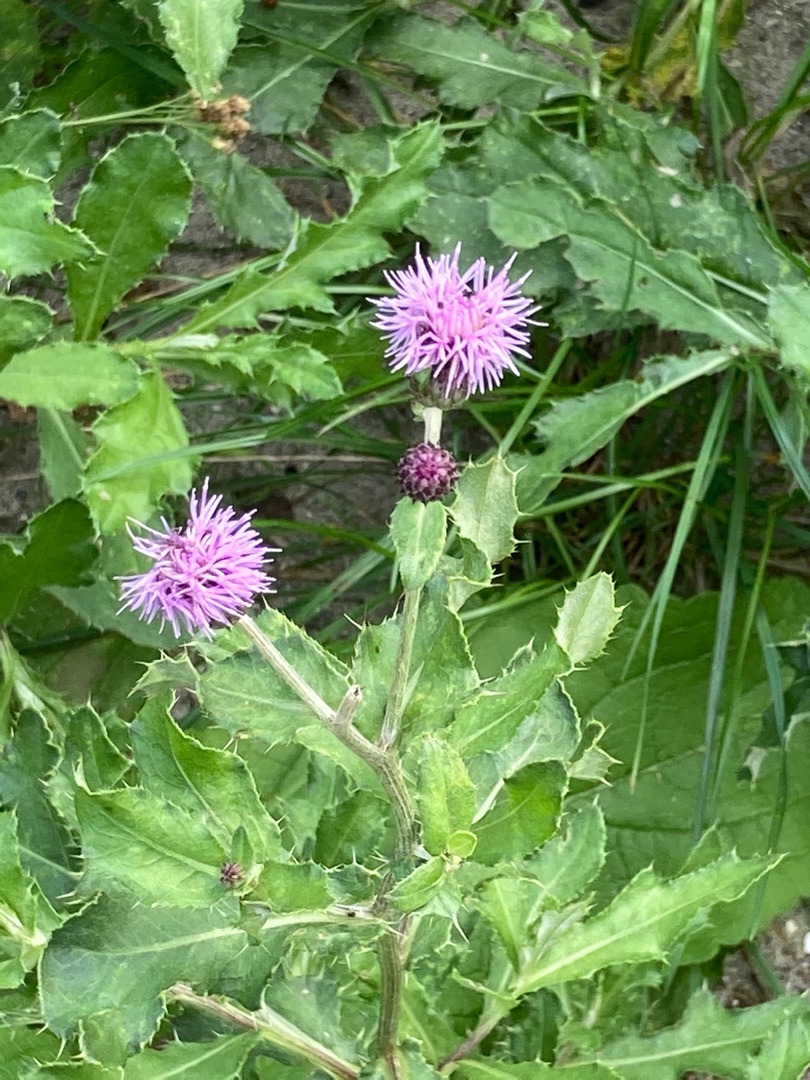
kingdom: Plantae
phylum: Tracheophyta
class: Magnoliopsida
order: Asterales
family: Asteraceae
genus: Cirsium
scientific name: Cirsium arvense
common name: Ager-tidsel
